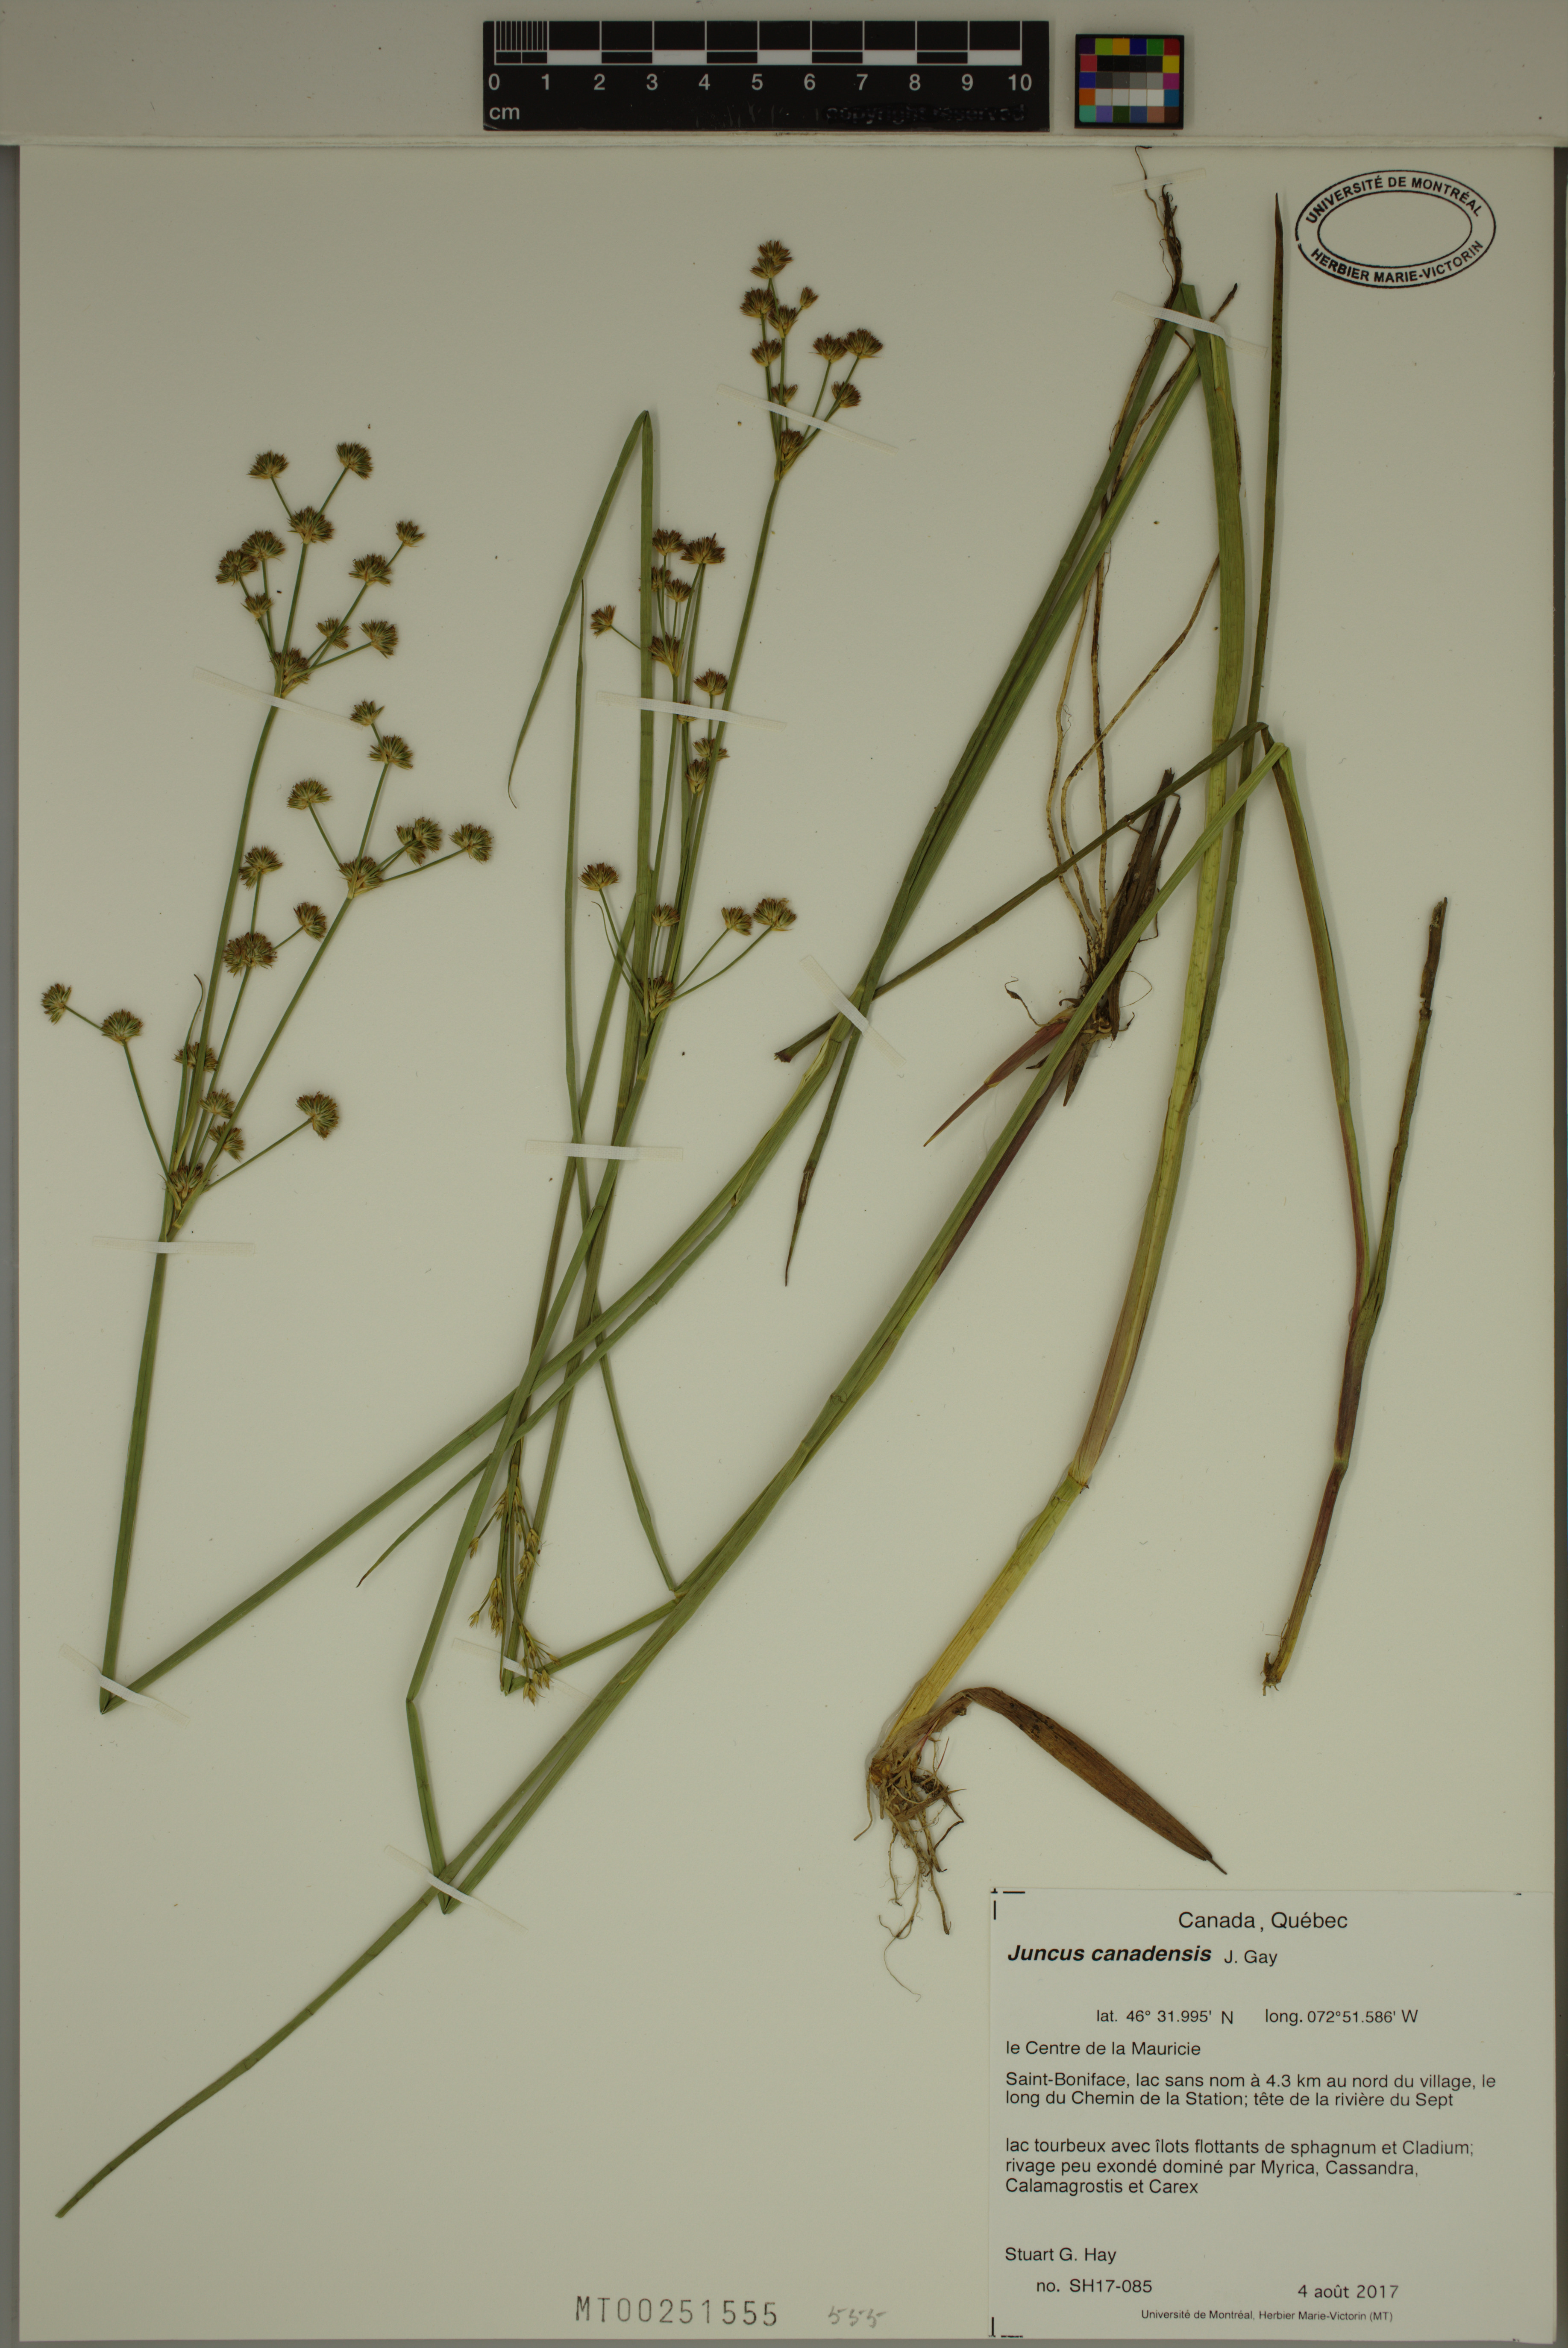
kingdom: Plantae
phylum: Tracheophyta
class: Liliopsida
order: Poales
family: Juncaceae
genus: Juncus
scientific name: Juncus canadensis
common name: Canada rush
